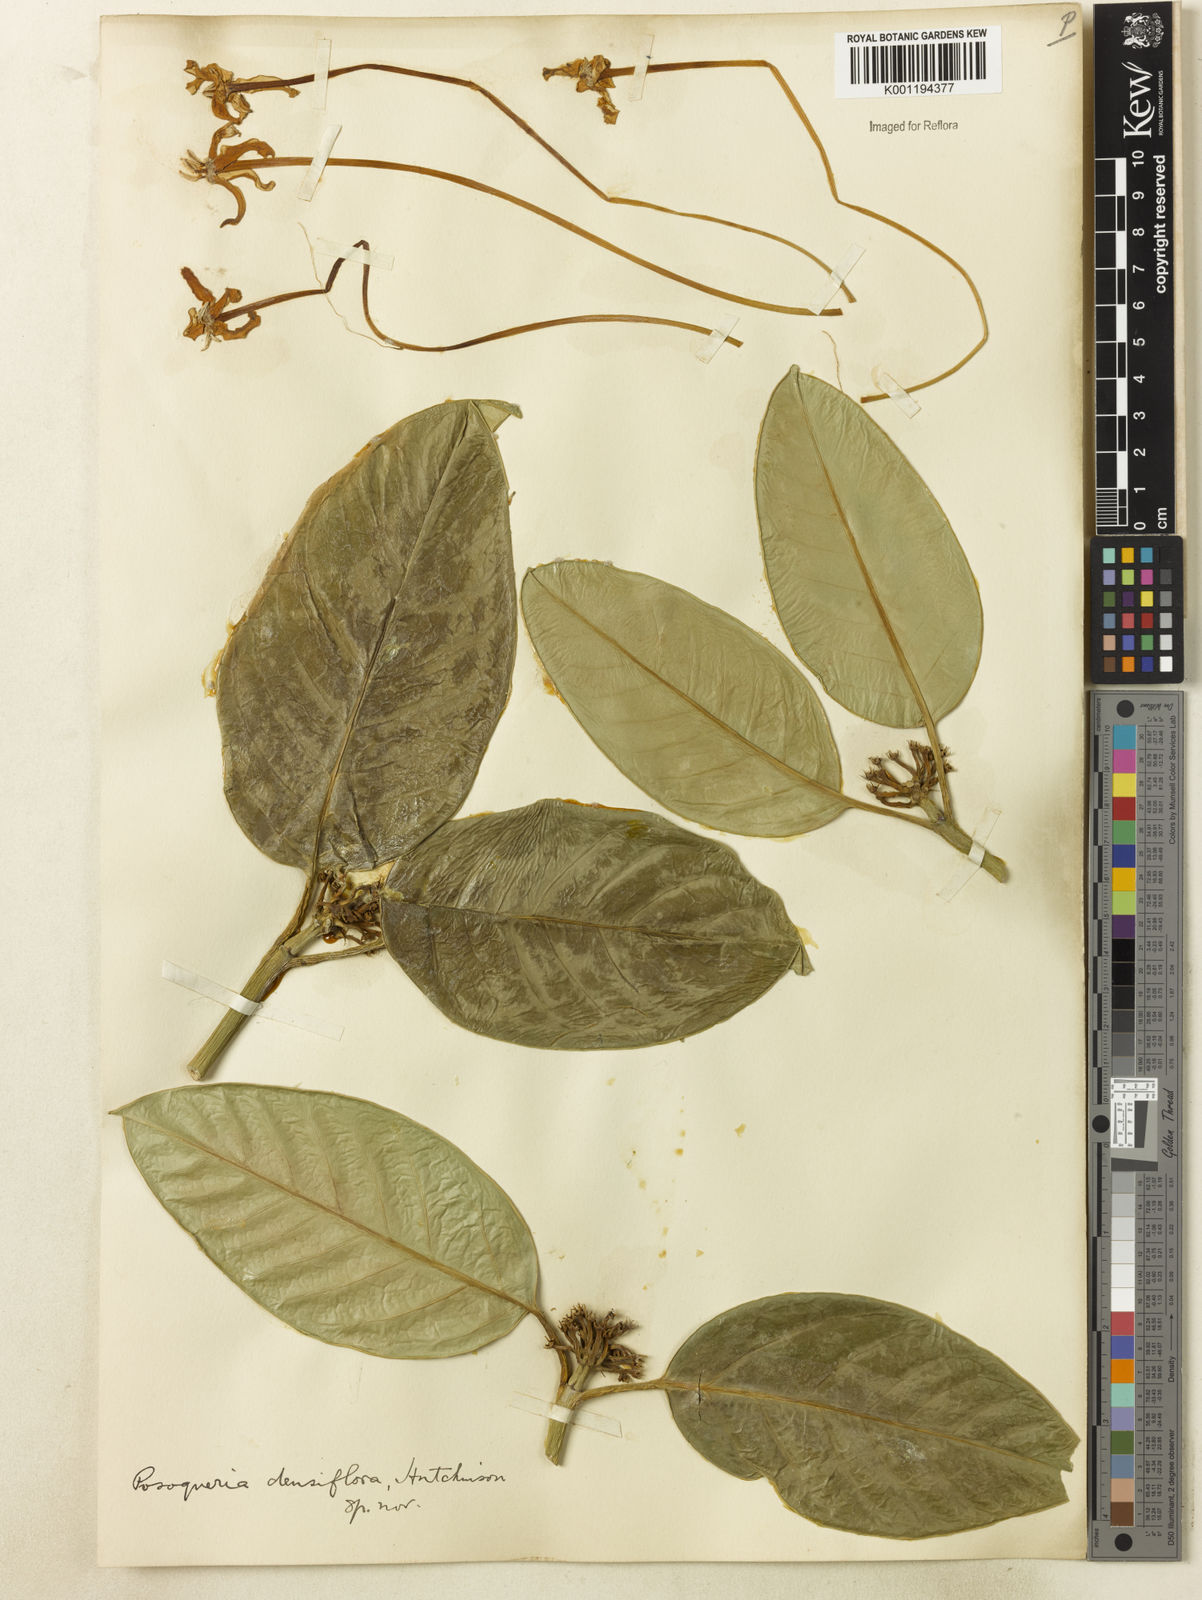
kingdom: Plantae
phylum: Tracheophyta
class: Magnoliopsida
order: Gentianales
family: Rubiaceae
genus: Posoqueria
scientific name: Posoqueria
